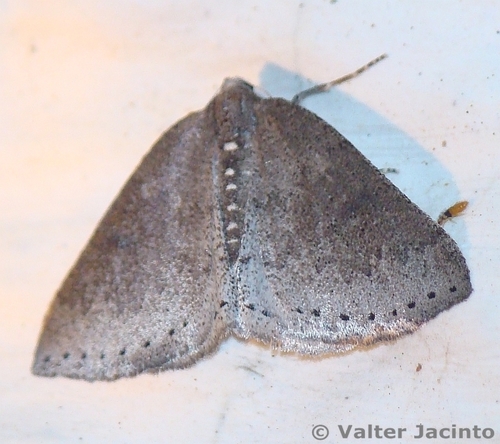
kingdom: Animalia
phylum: Arthropoda
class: Insecta
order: Lepidoptera
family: Geometridae
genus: Aleucis
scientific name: Aleucis distinctata
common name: Sloe carpet
